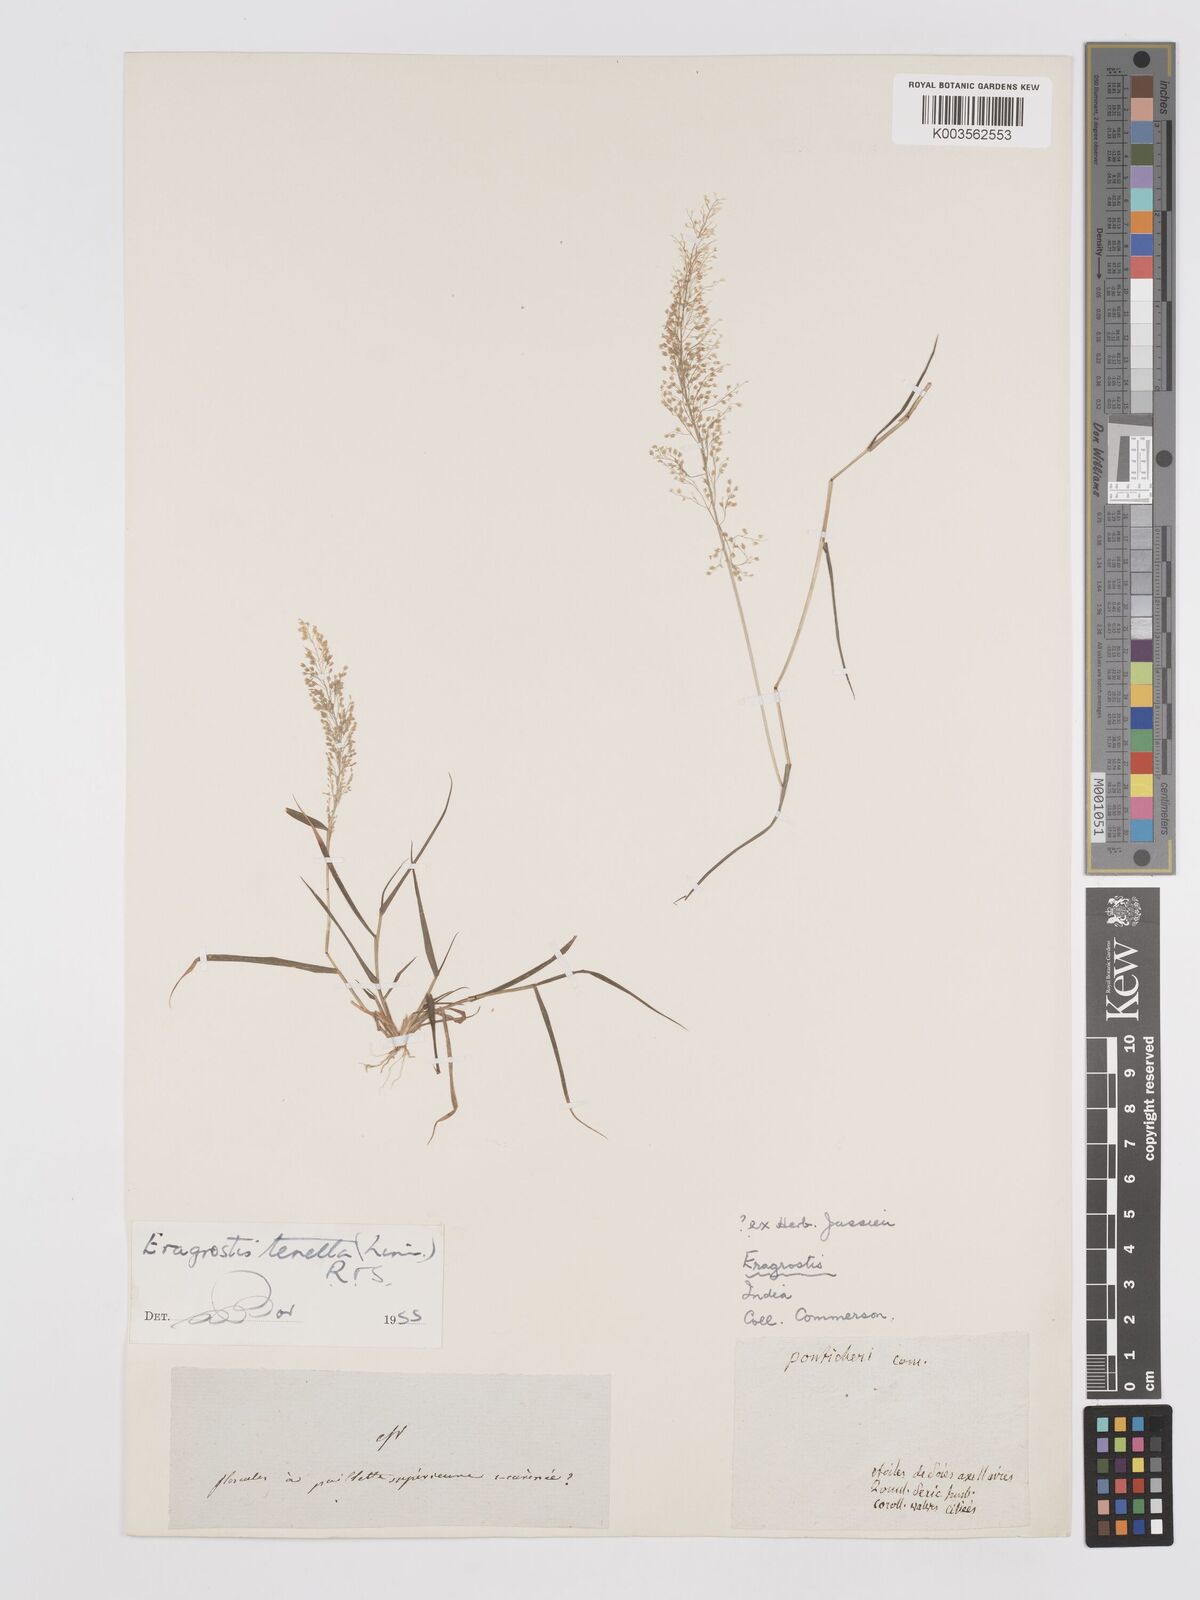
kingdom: Plantae
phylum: Tracheophyta
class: Liliopsida
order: Poales
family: Poaceae
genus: Eragrostis
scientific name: Eragrostis tenella
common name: Japanese lovegrass
